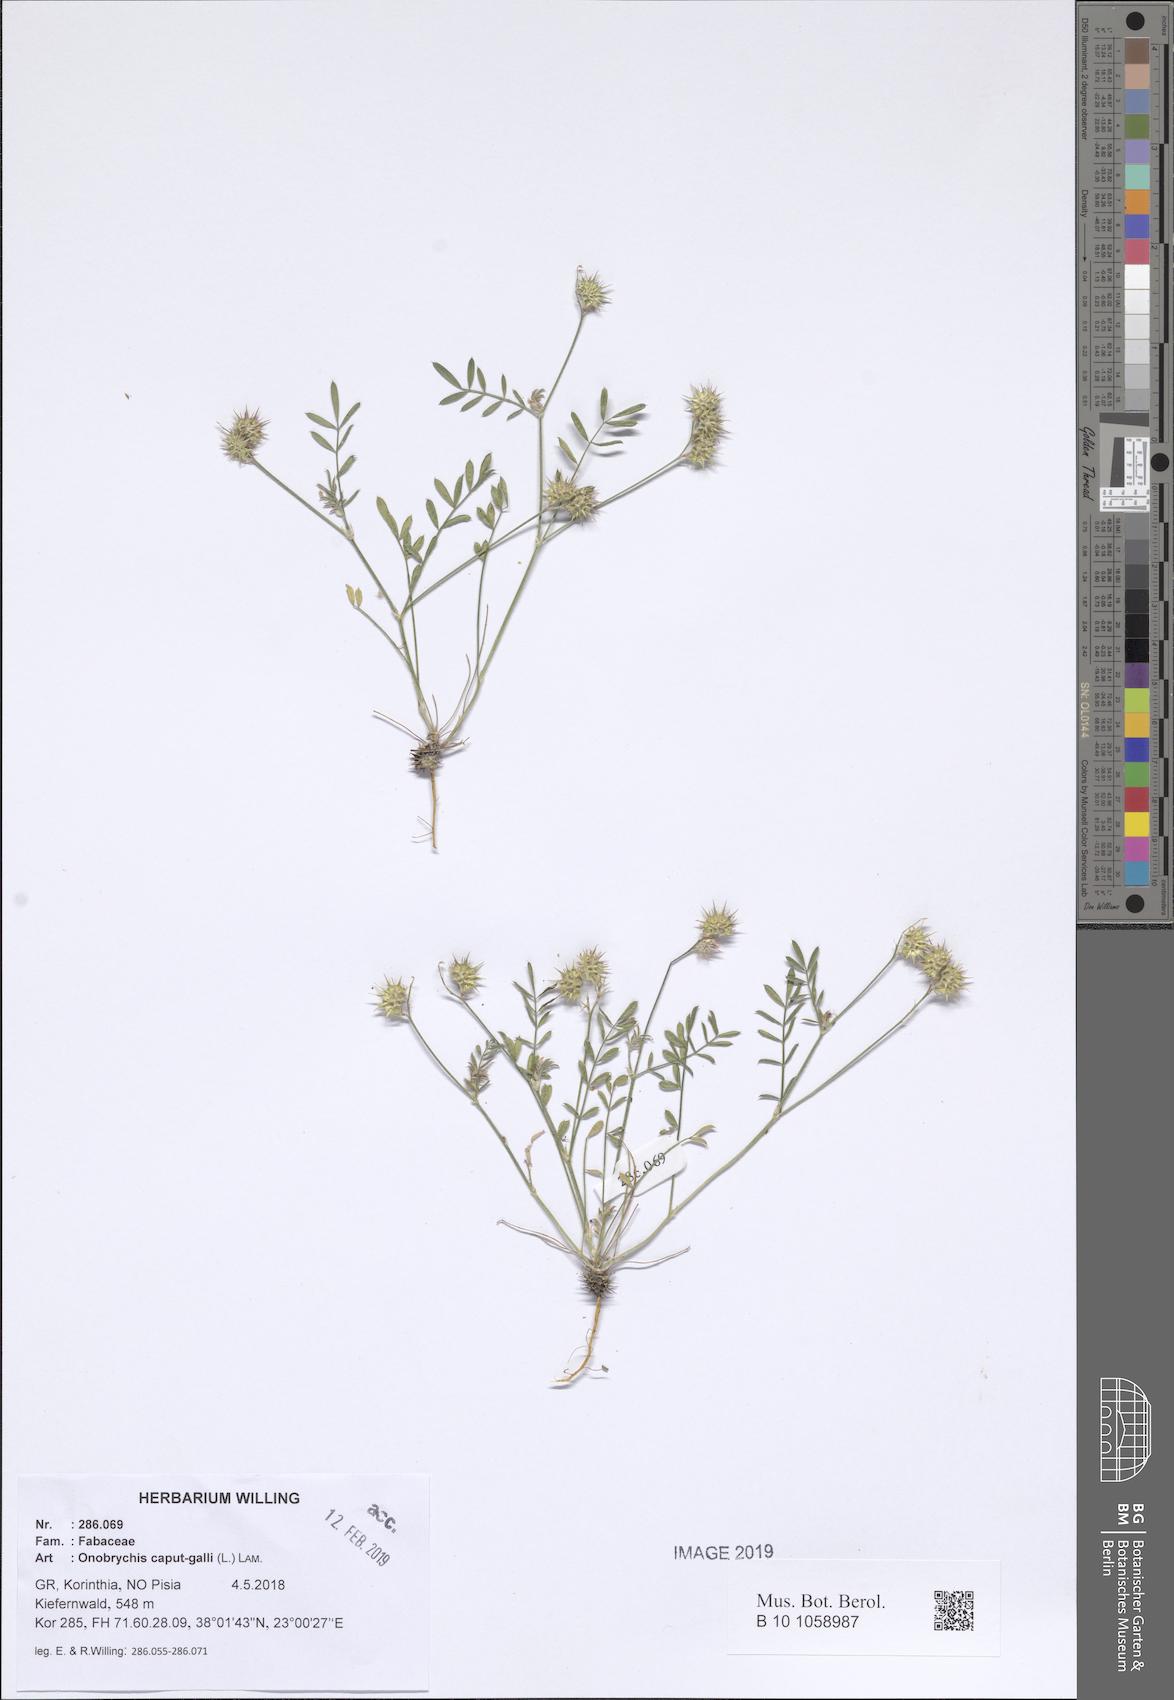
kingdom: Plantae
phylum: Tracheophyta
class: Magnoliopsida
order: Fabales
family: Fabaceae
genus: Onobrychis
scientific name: Onobrychis caput-galli
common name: Cockscomb sainfoin
